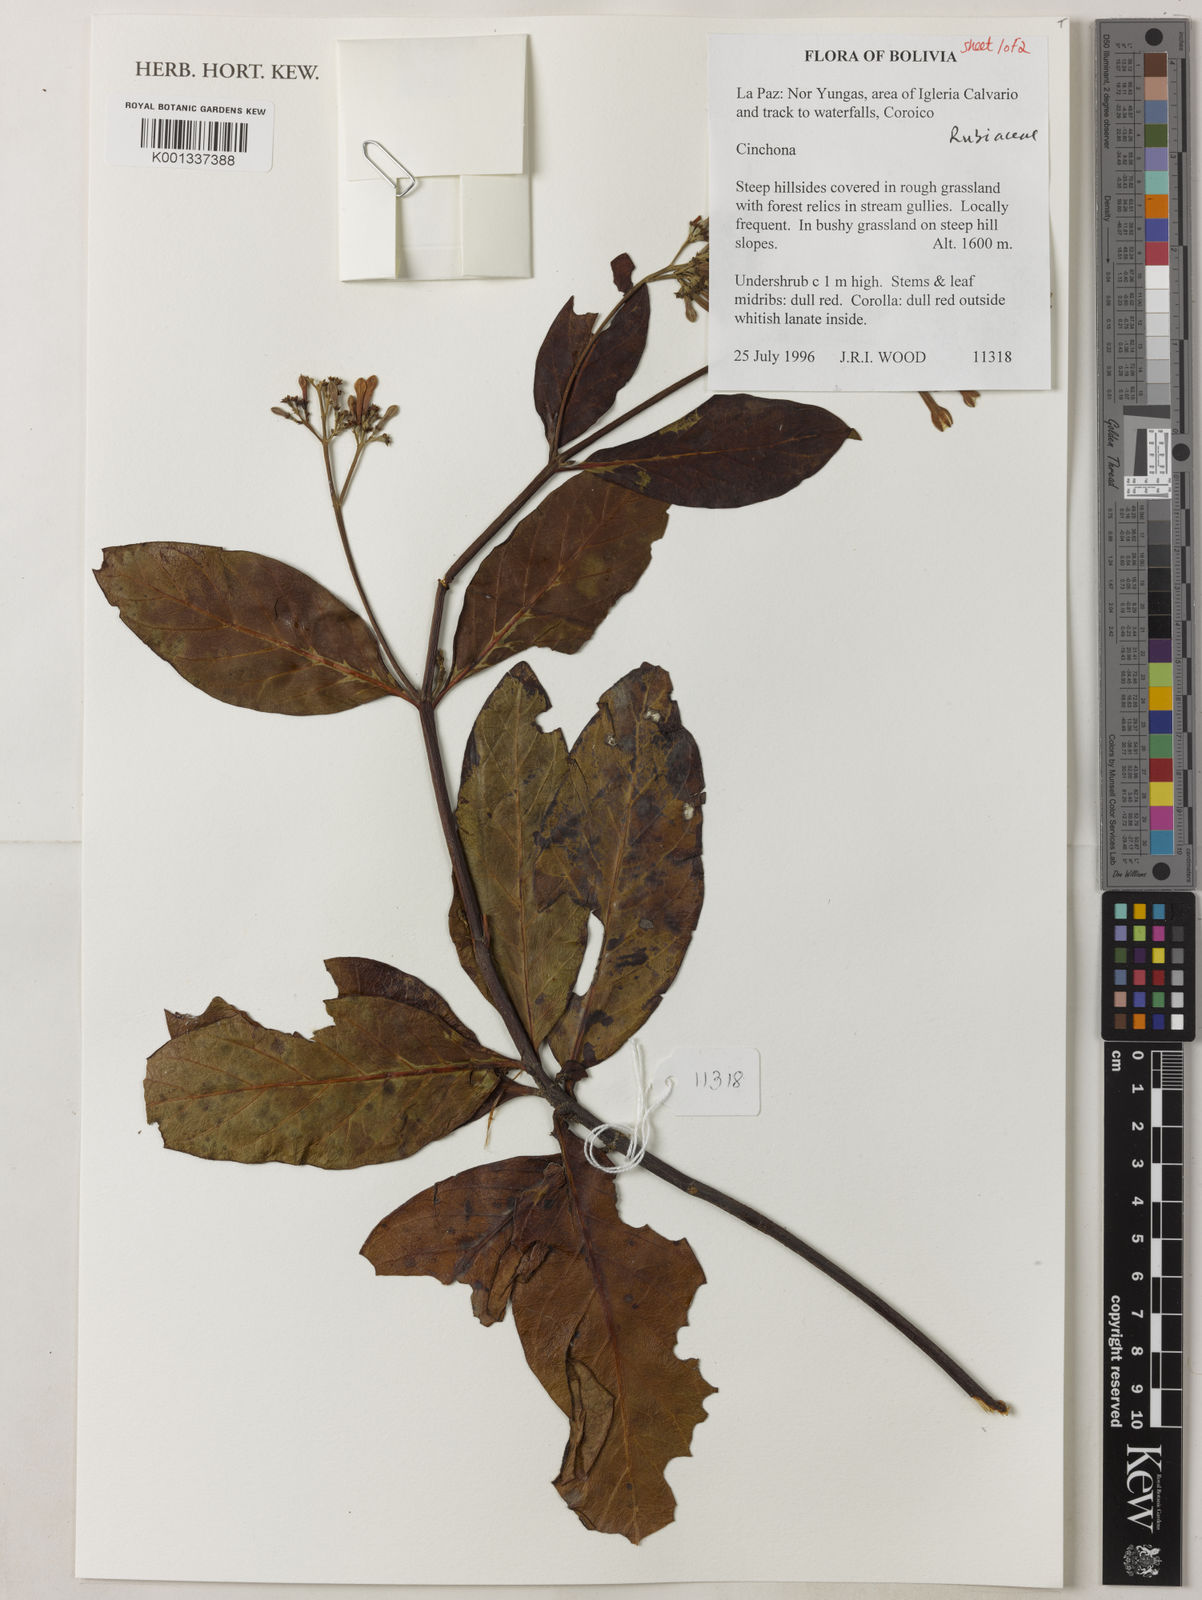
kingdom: Plantae
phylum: Tracheophyta
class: Magnoliopsida
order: Gentianales
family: Rubiaceae
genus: Cinchona
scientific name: Cinchona
